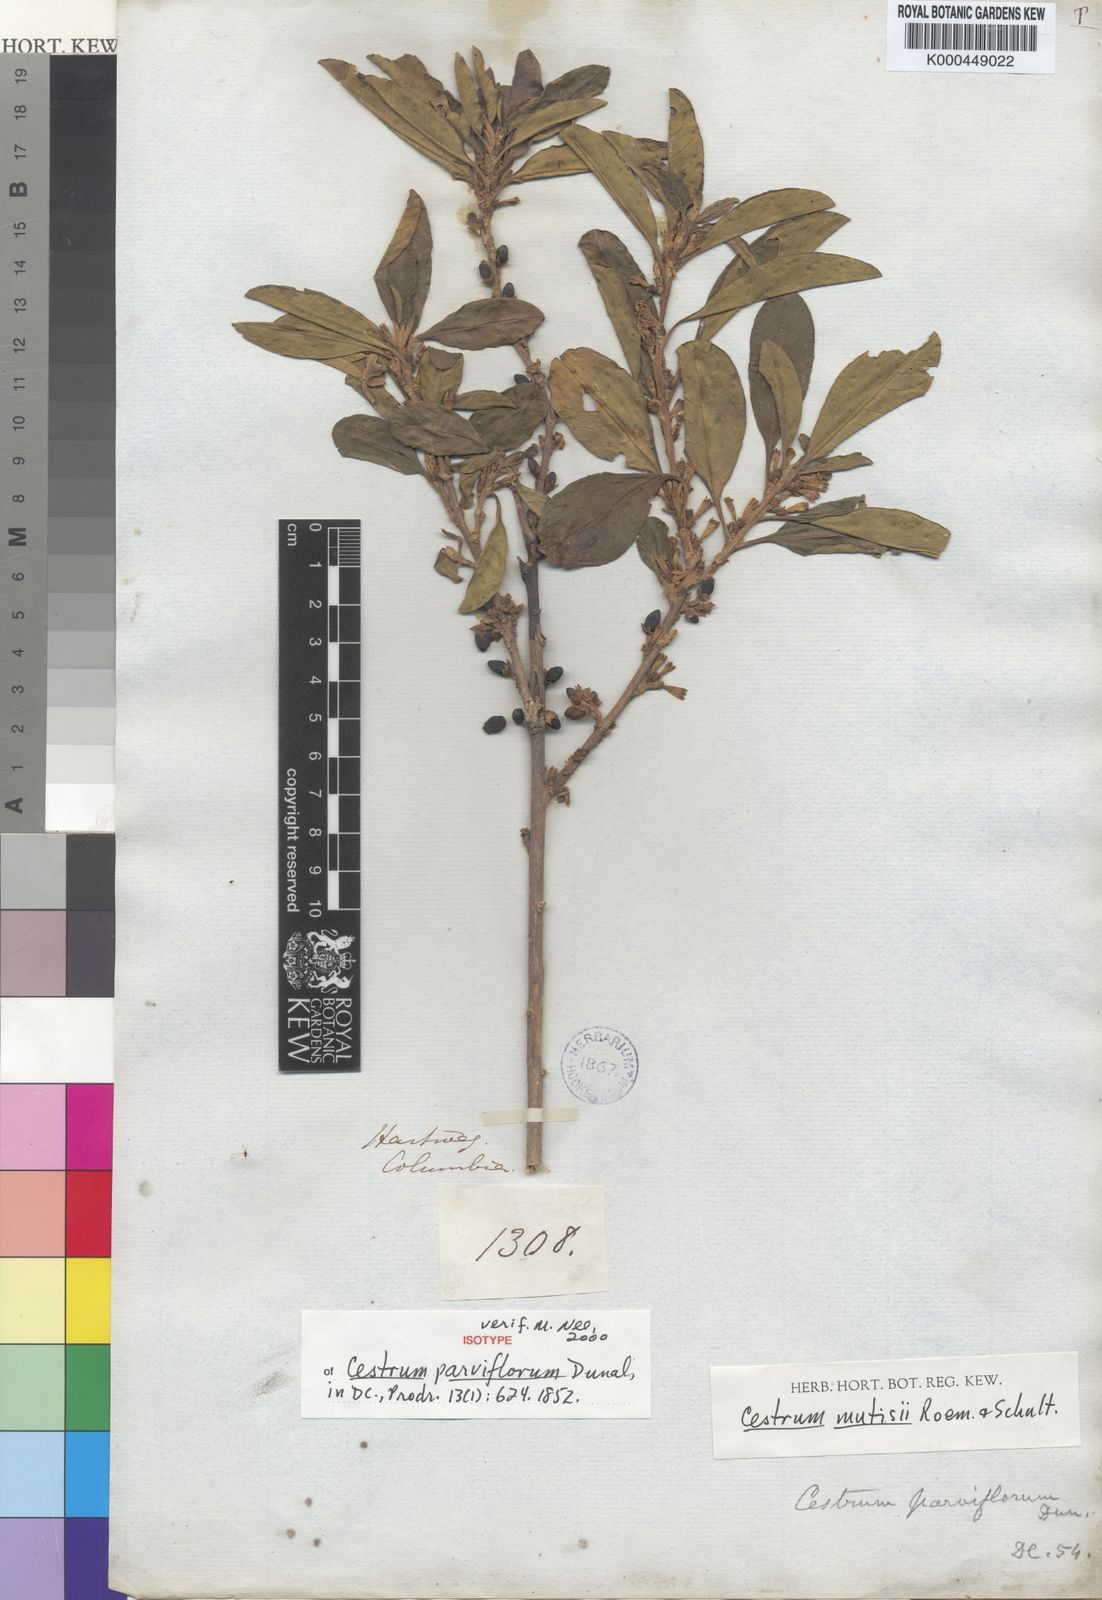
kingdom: Plantae
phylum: Tracheophyta
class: Magnoliopsida
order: Solanales
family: Solanaceae
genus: Cestrum
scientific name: Cestrum mutisii
